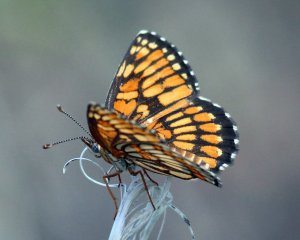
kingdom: Animalia
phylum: Arthropoda
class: Insecta
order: Lepidoptera
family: Nymphalidae
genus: Thessalia
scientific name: Thessalia theona
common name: Theona Checkerspot
